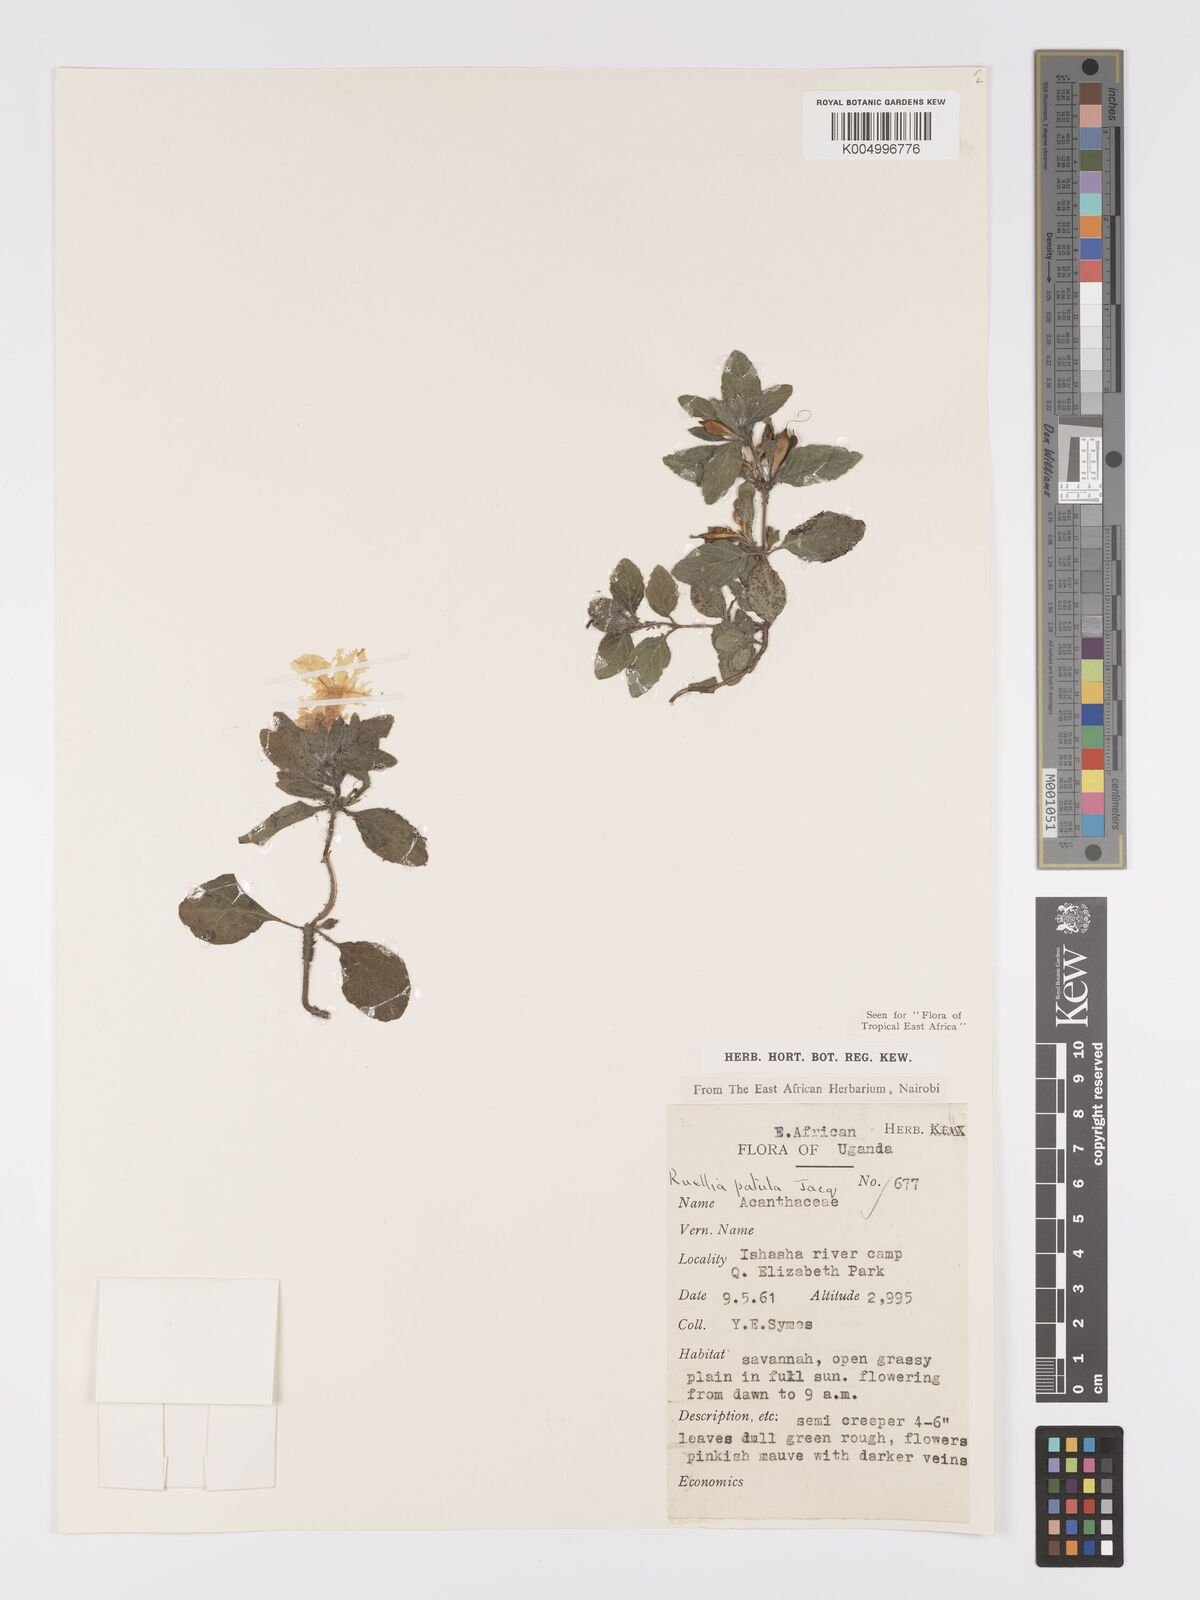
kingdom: Plantae
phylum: Tracheophyta
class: Magnoliopsida
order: Lamiales
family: Acanthaceae
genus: Ruellia
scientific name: Ruellia patula
